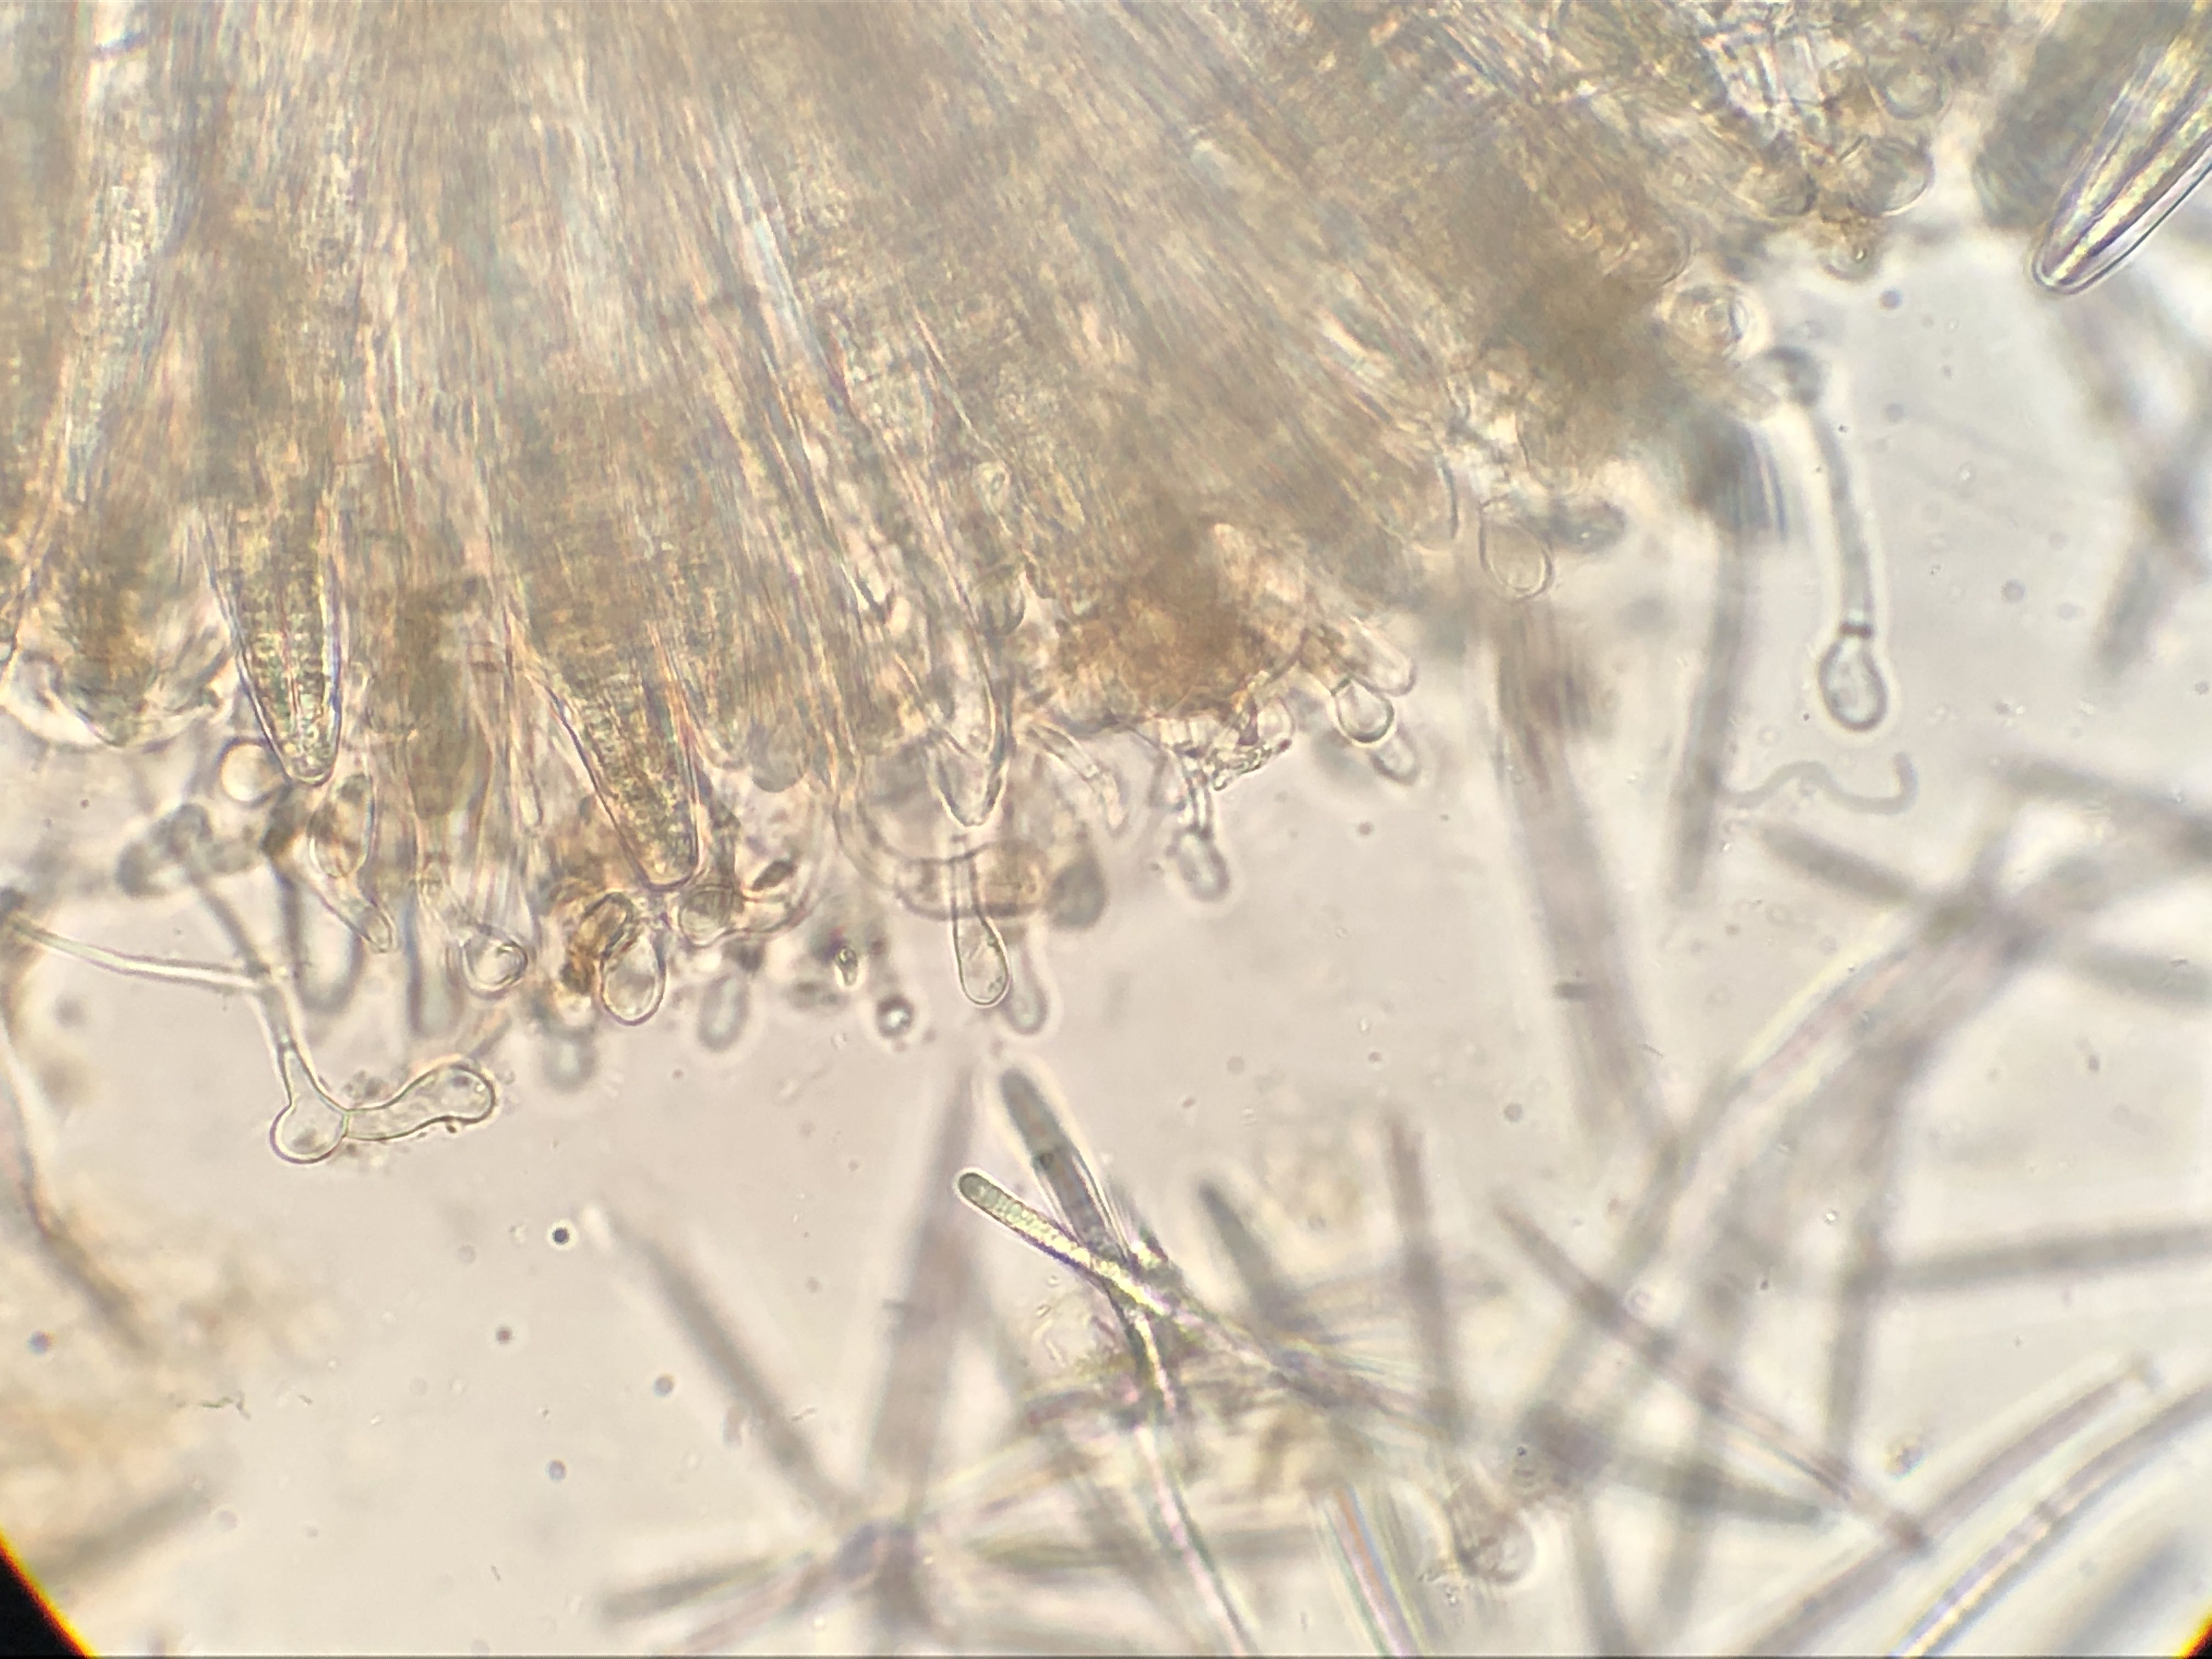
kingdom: Fungi
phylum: Ascomycota
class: Geoglossomycetes
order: Geoglossales
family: Geoglossaceae
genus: Geoglossum
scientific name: Geoglossum fallax
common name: småskællet jordtunge
